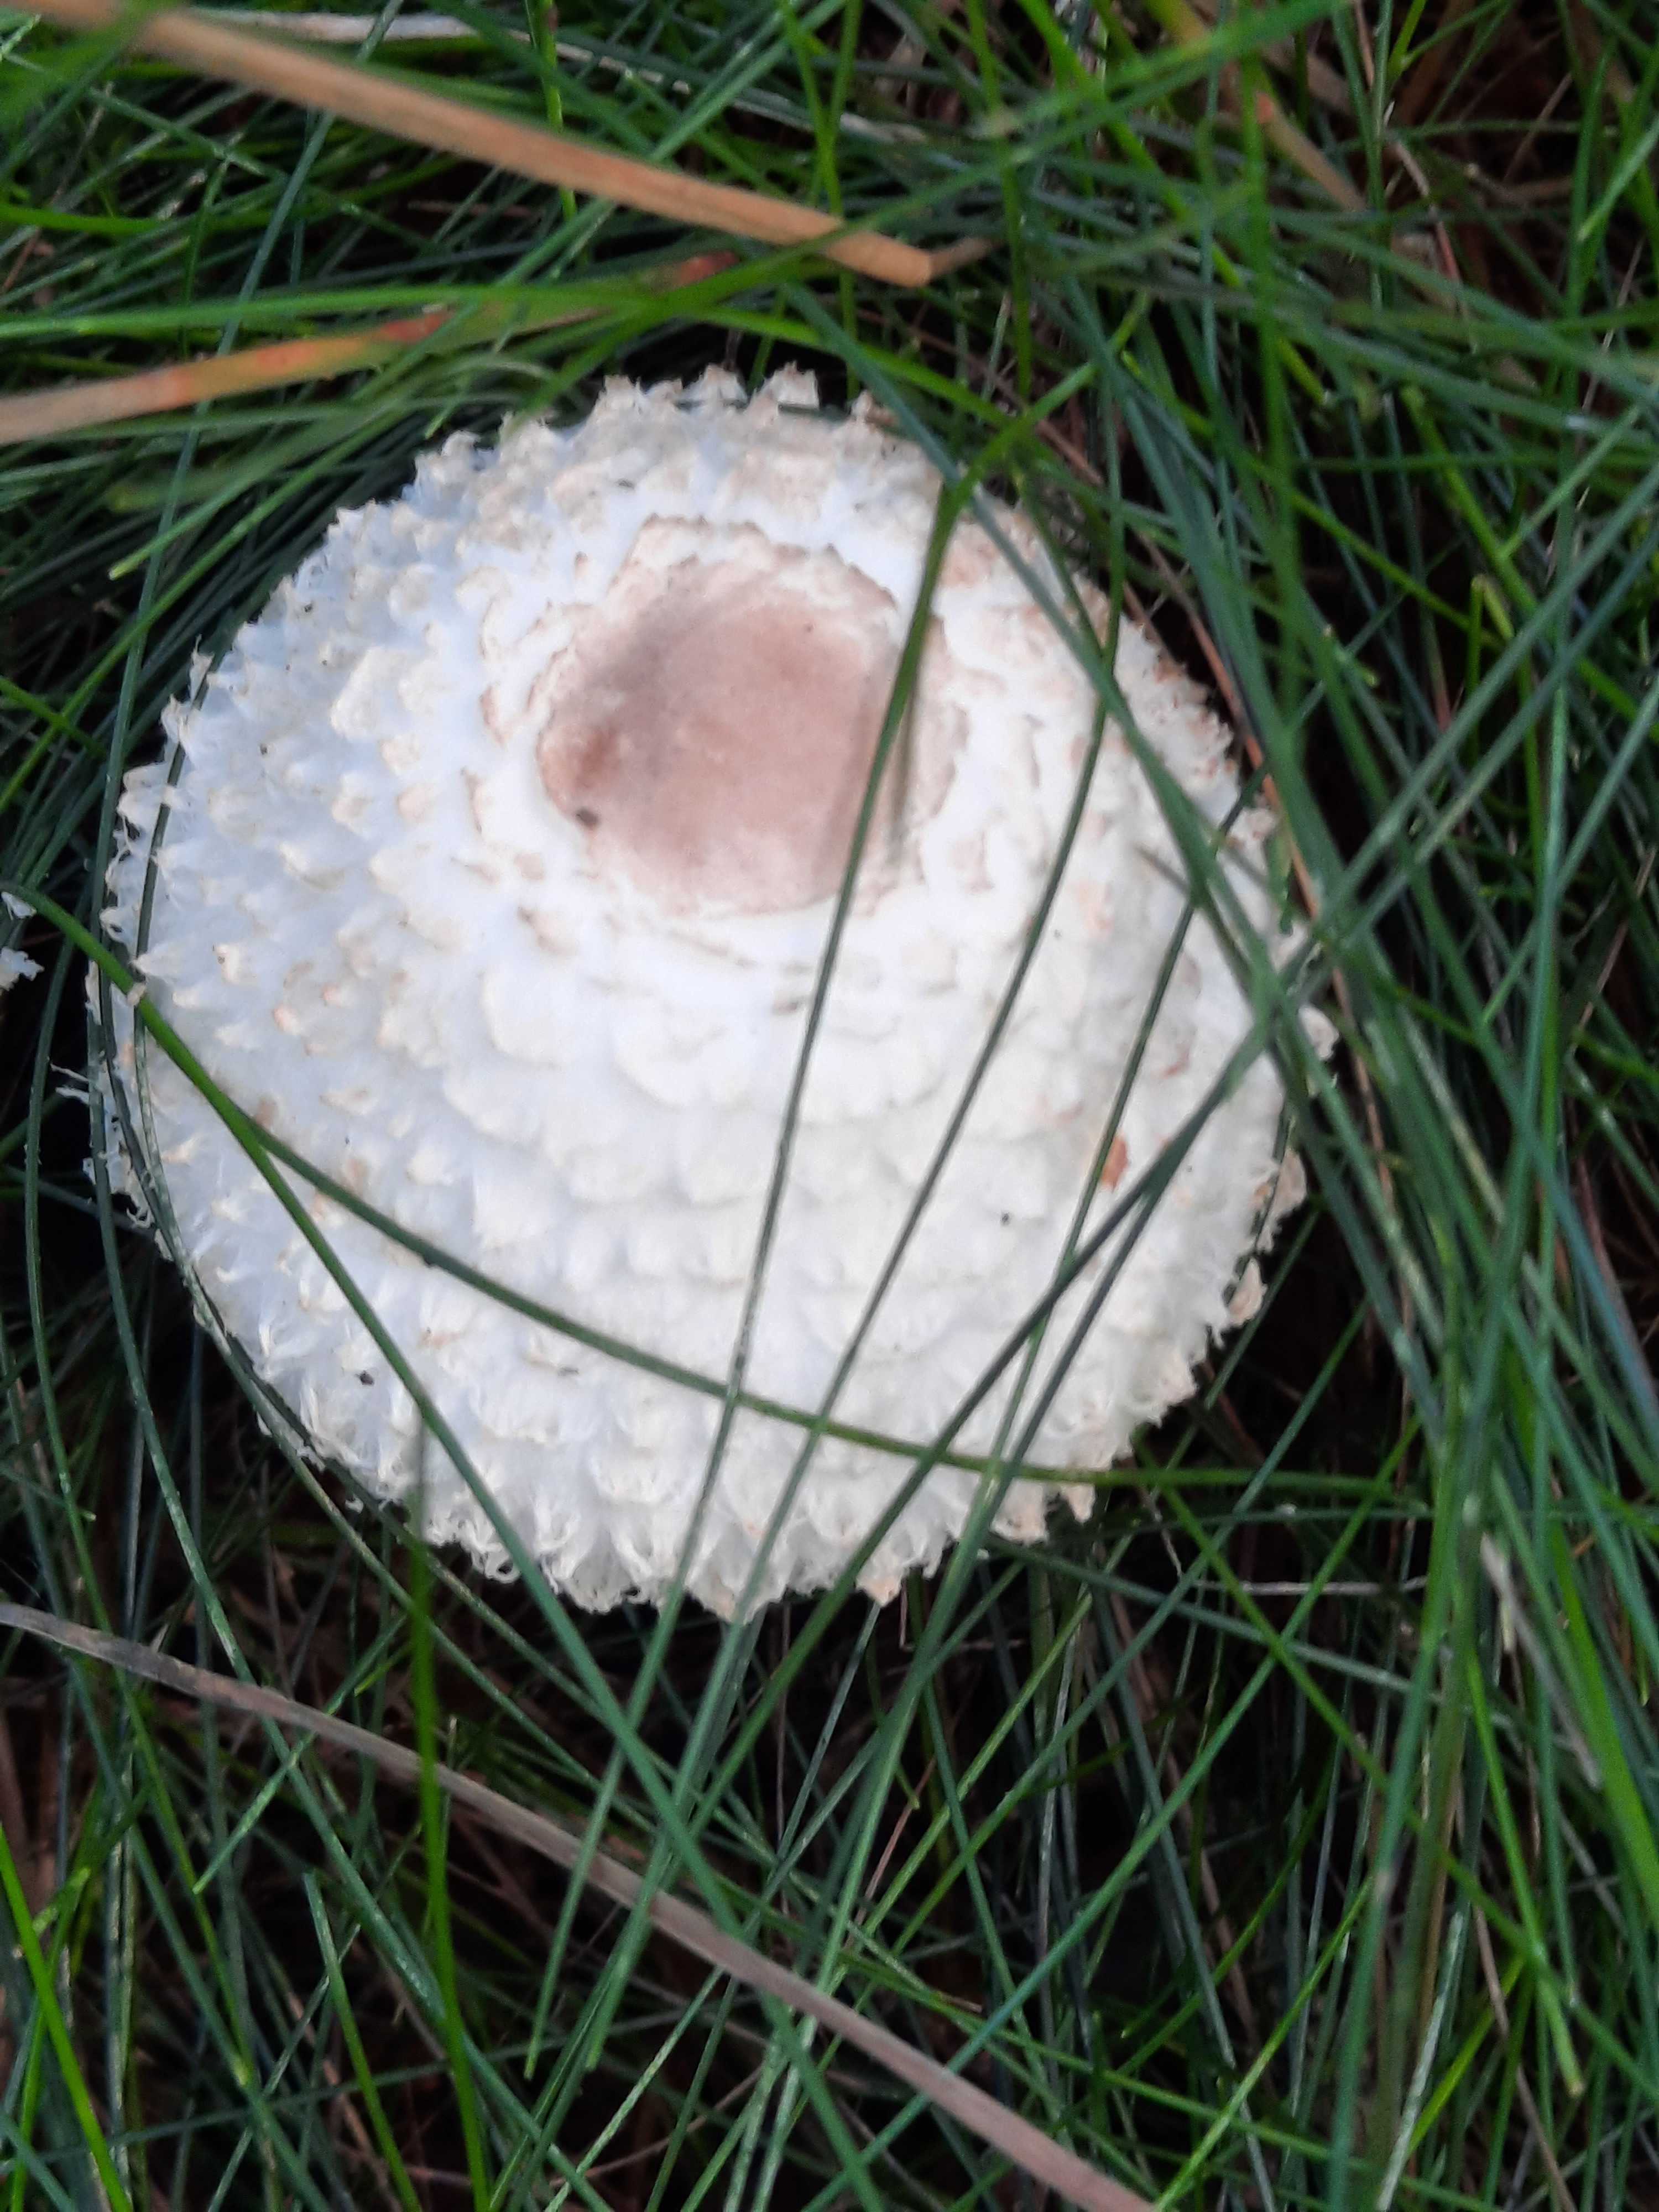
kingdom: Fungi
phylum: Basidiomycota
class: Agaricomycetes
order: Agaricales
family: Agaricaceae
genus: Leucoagaricus
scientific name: Leucoagaricus nympharum
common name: gran-silkehat
